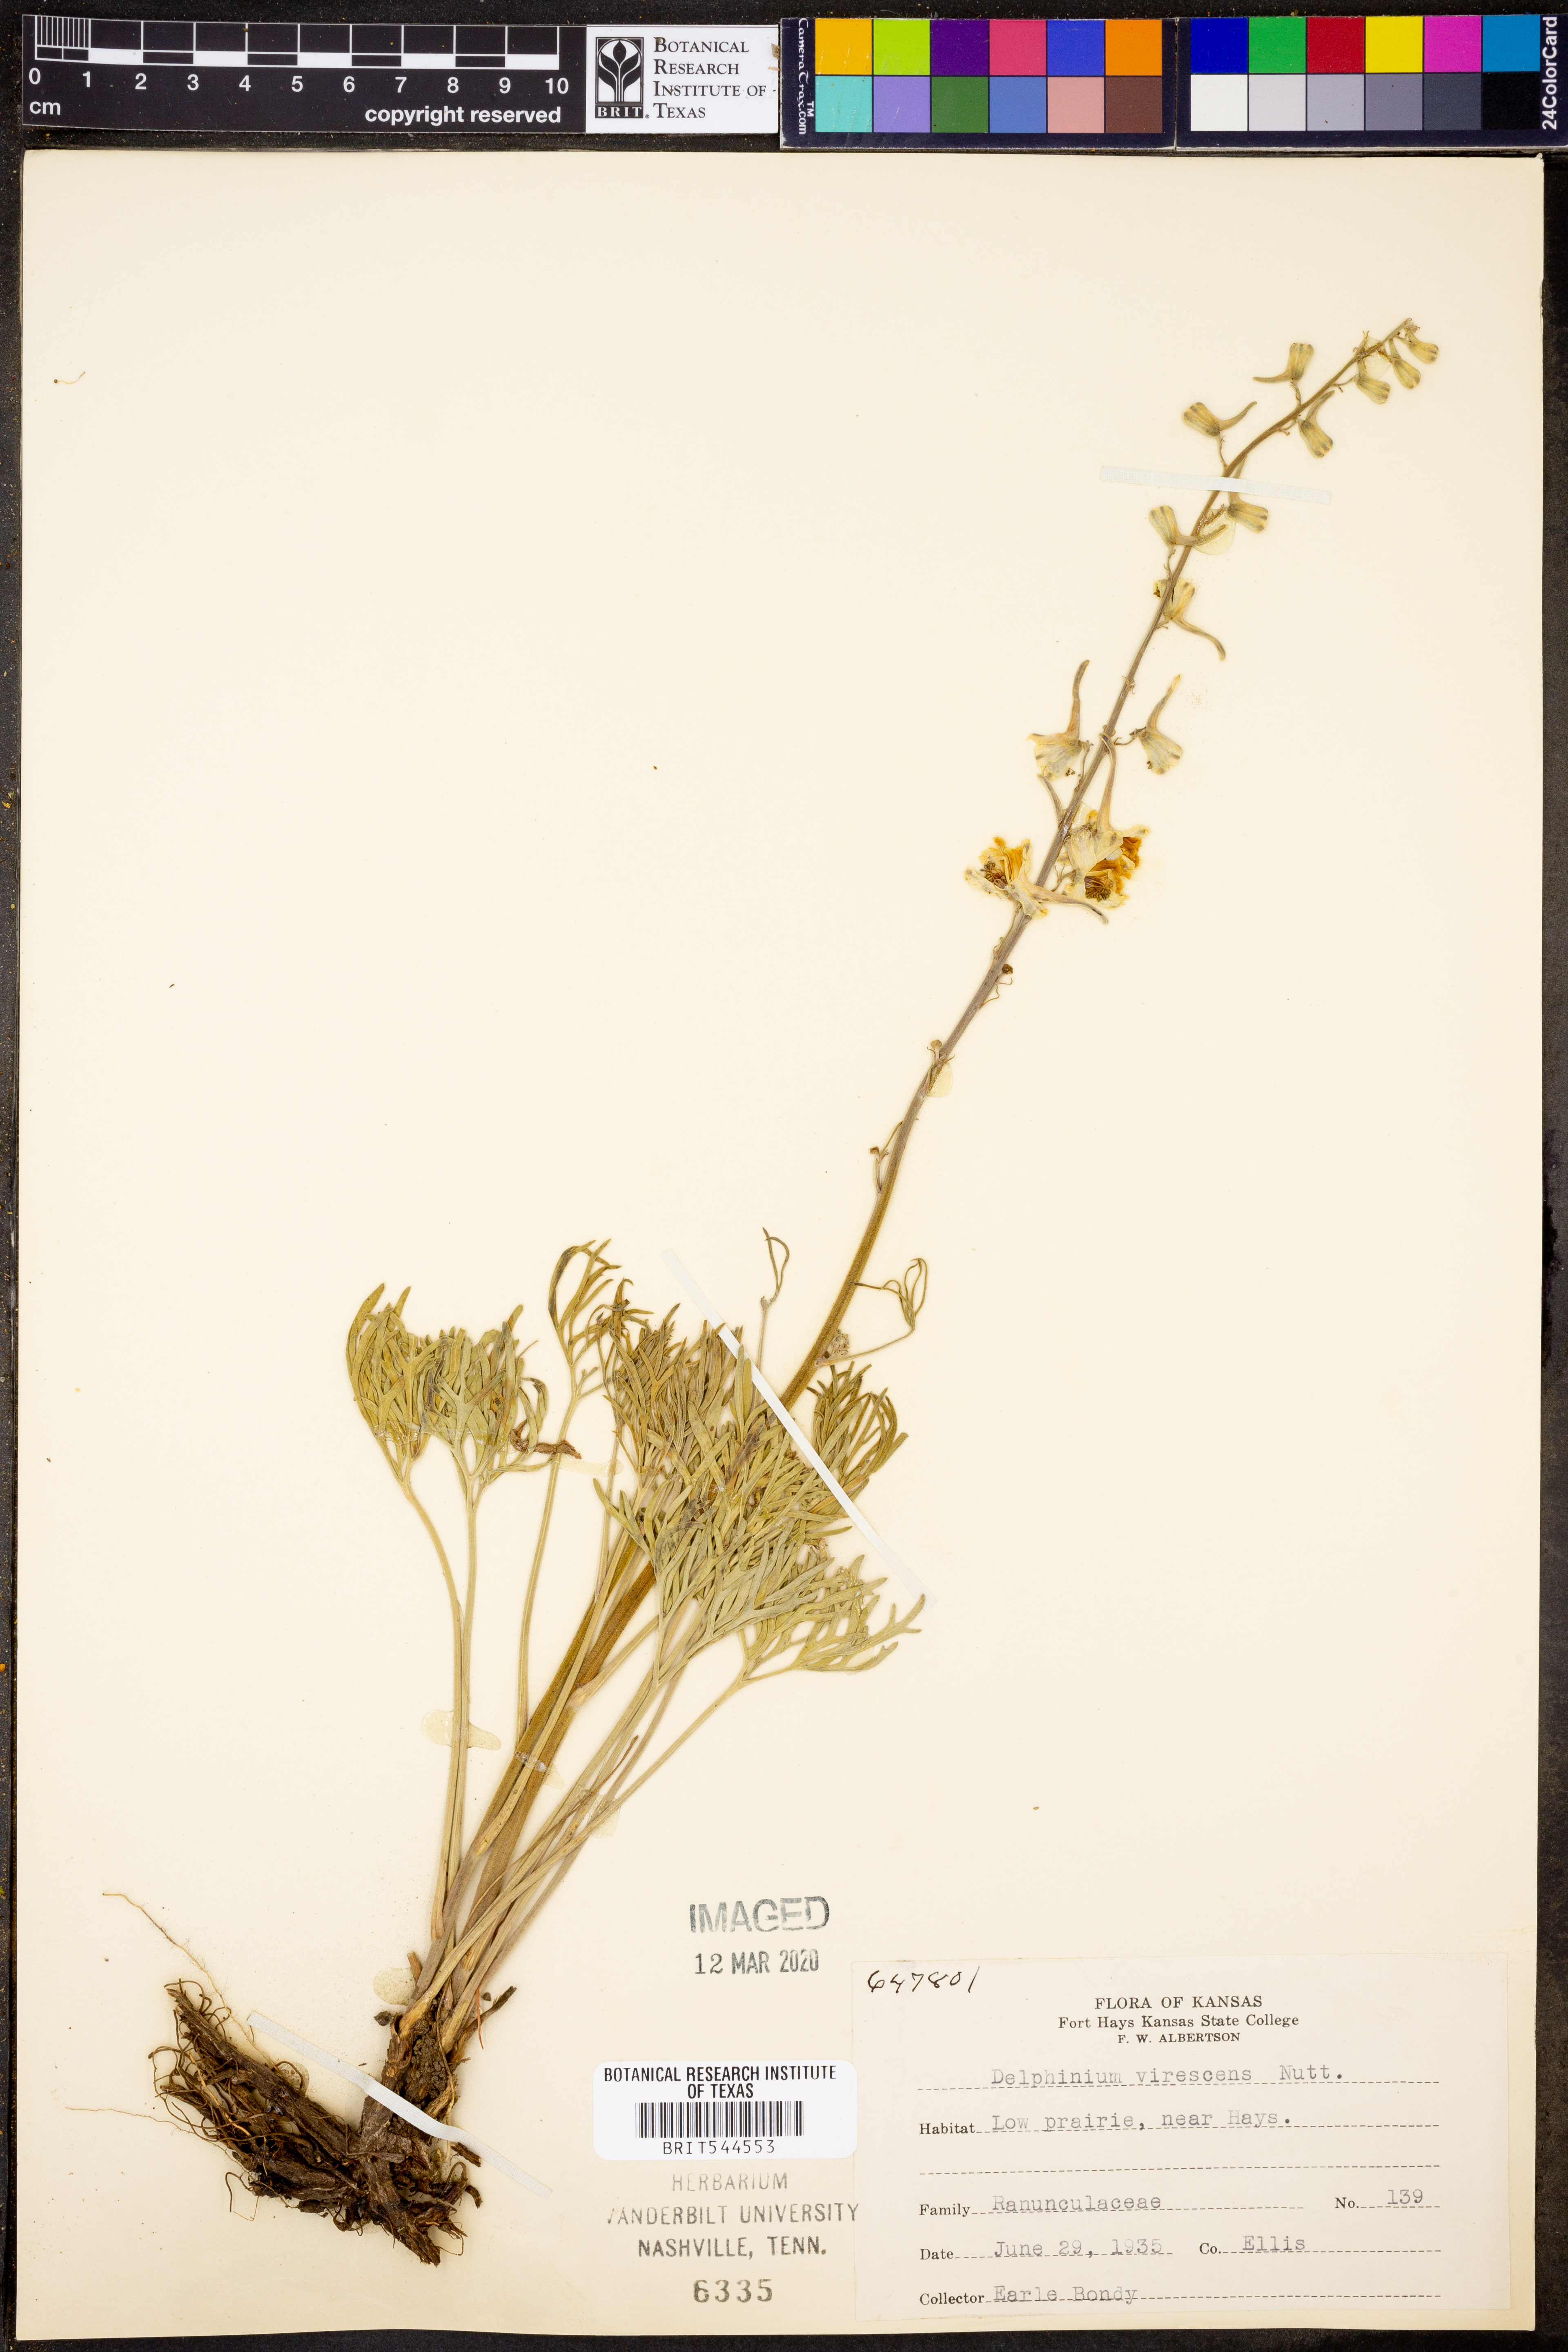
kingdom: Plantae
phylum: Tracheophyta
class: Magnoliopsida
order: Ranunculales
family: Ranunculaceae
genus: Delphinium
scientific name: Delphinium carolinianum
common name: Carolina larkspur
